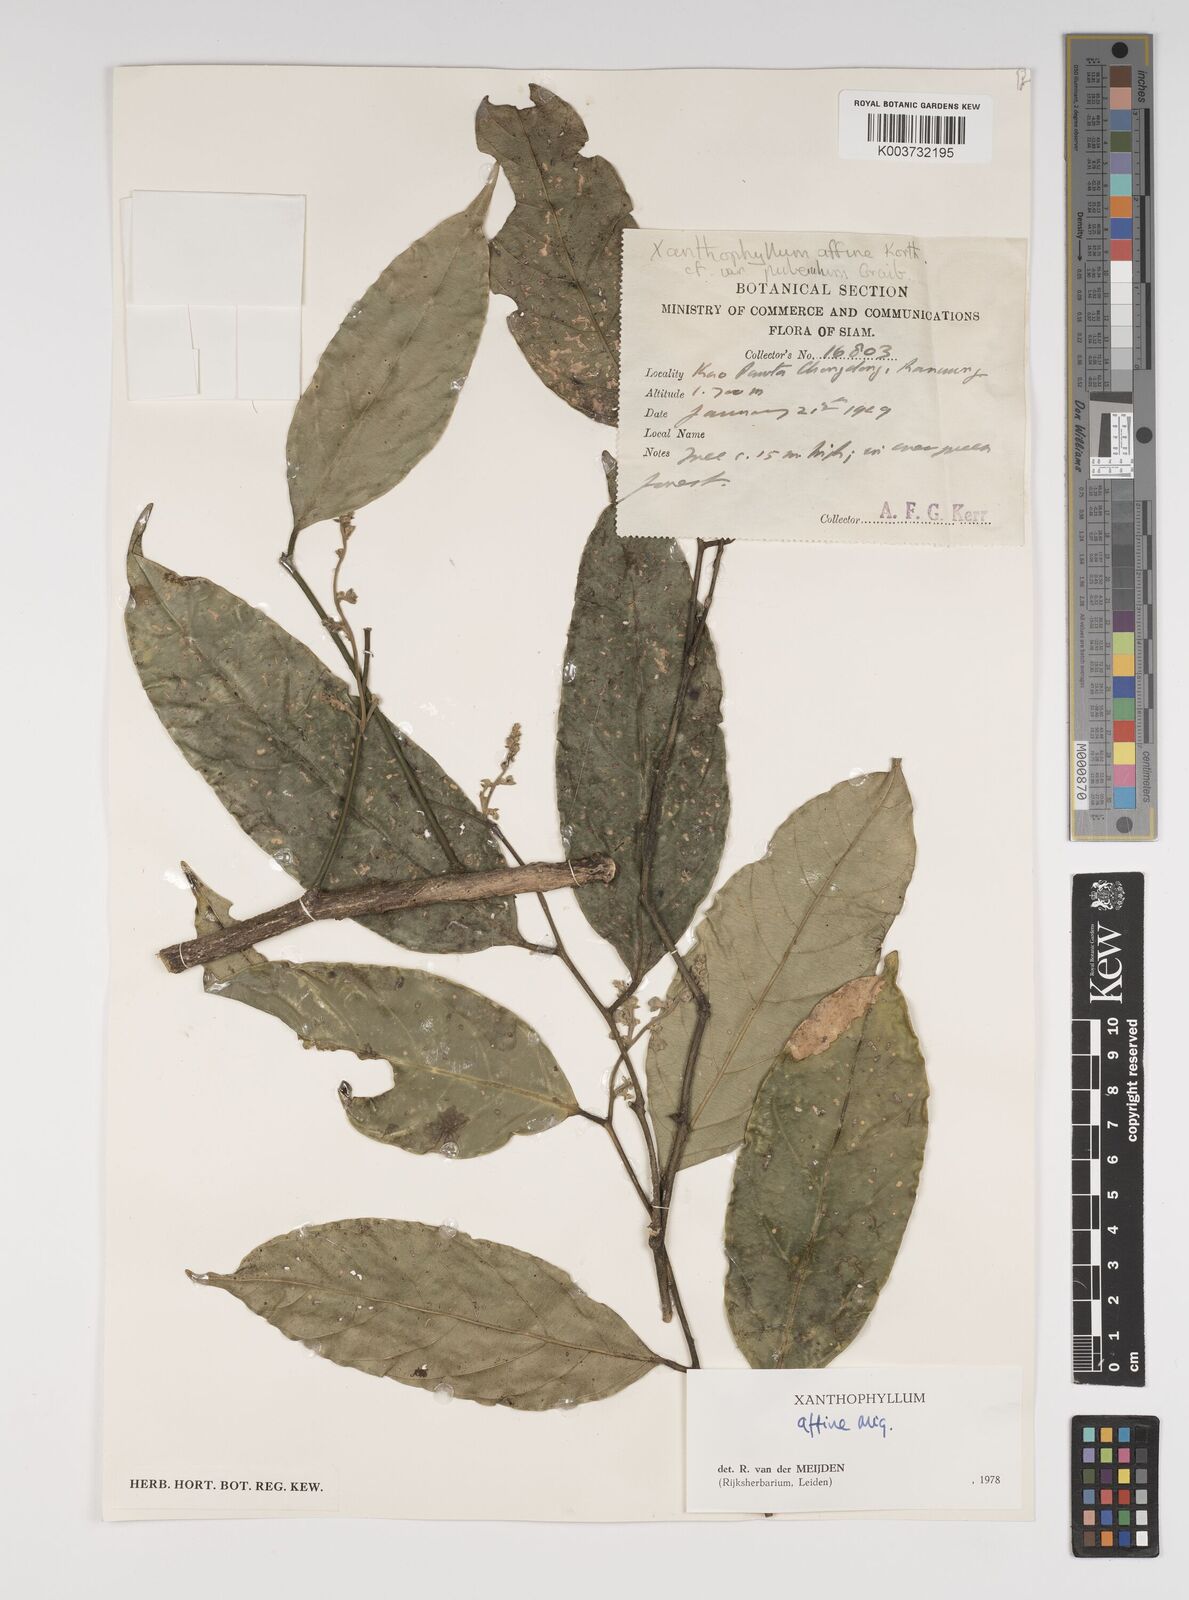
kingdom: Plantae
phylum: Tracheophyta
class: Magnoliopsida
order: Fabales
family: Polygalaceae
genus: Xanthophyllum
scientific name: Xanthophyllum flavescens
